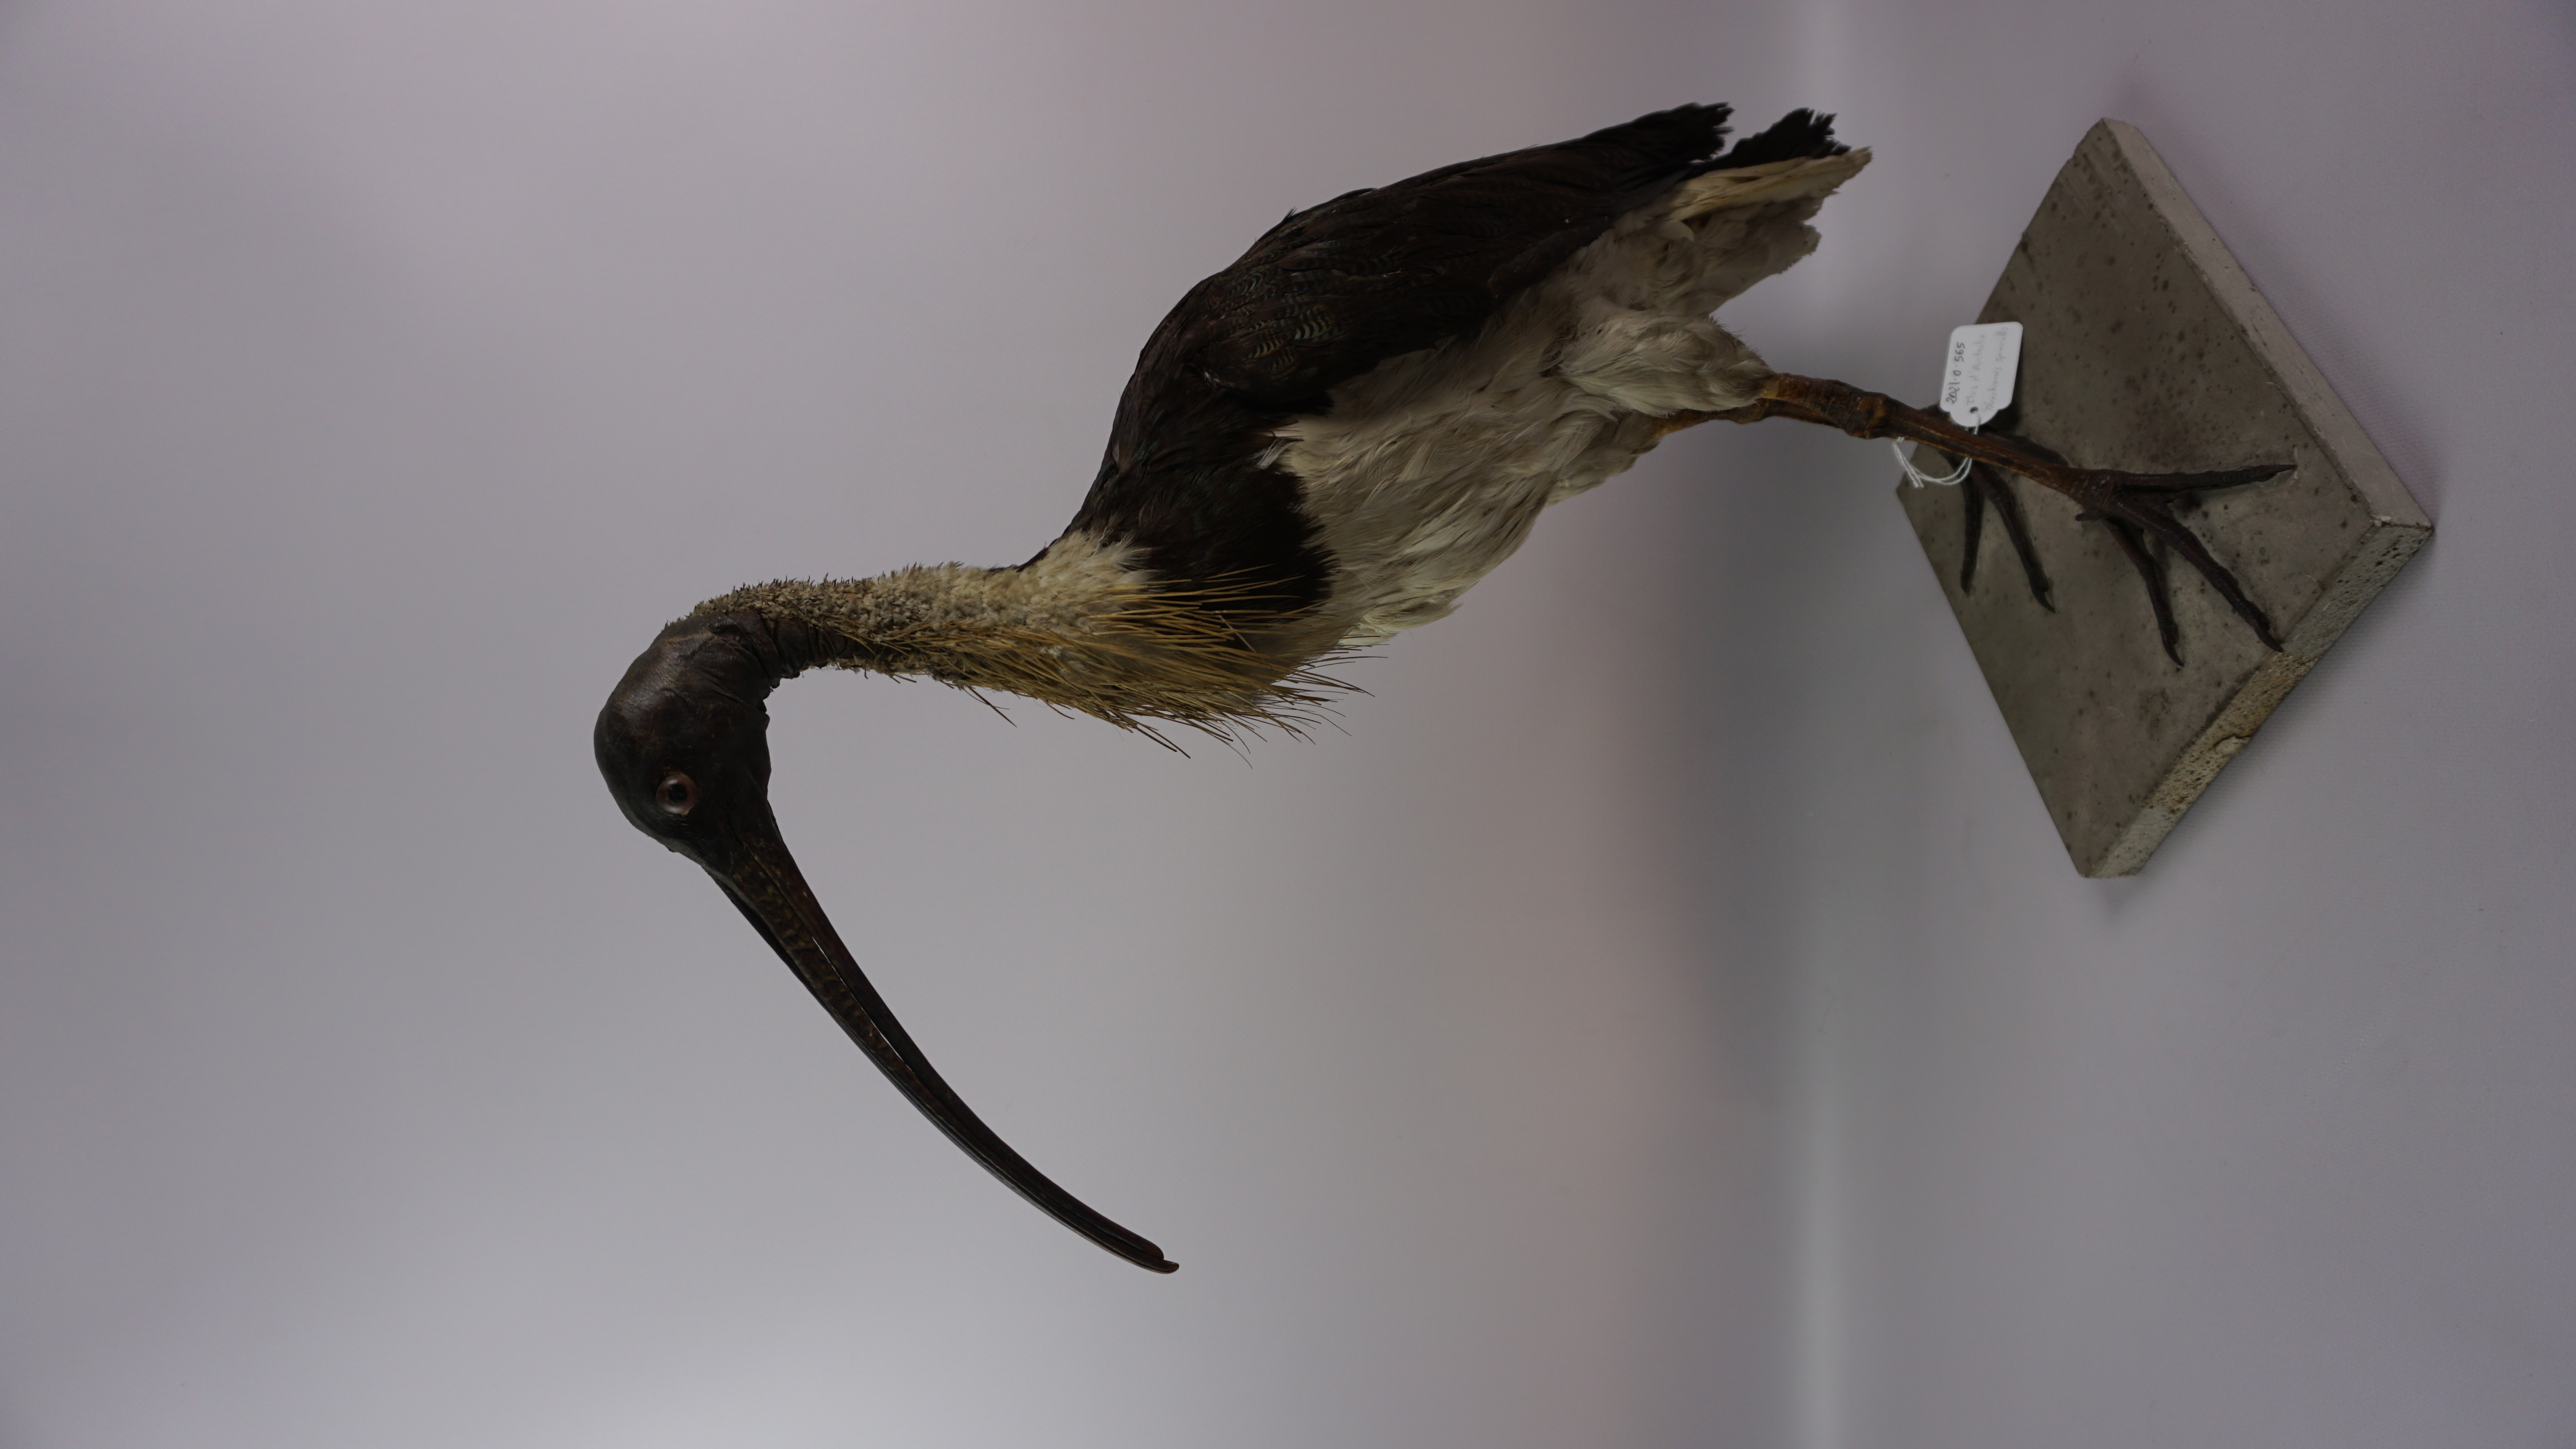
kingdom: Animalia
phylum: Chordata
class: Aves
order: Pelecaniformes
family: Threskiornithidae
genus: Threskiornis
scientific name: Threskiornis spinicollis
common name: Straw-necked ibis
